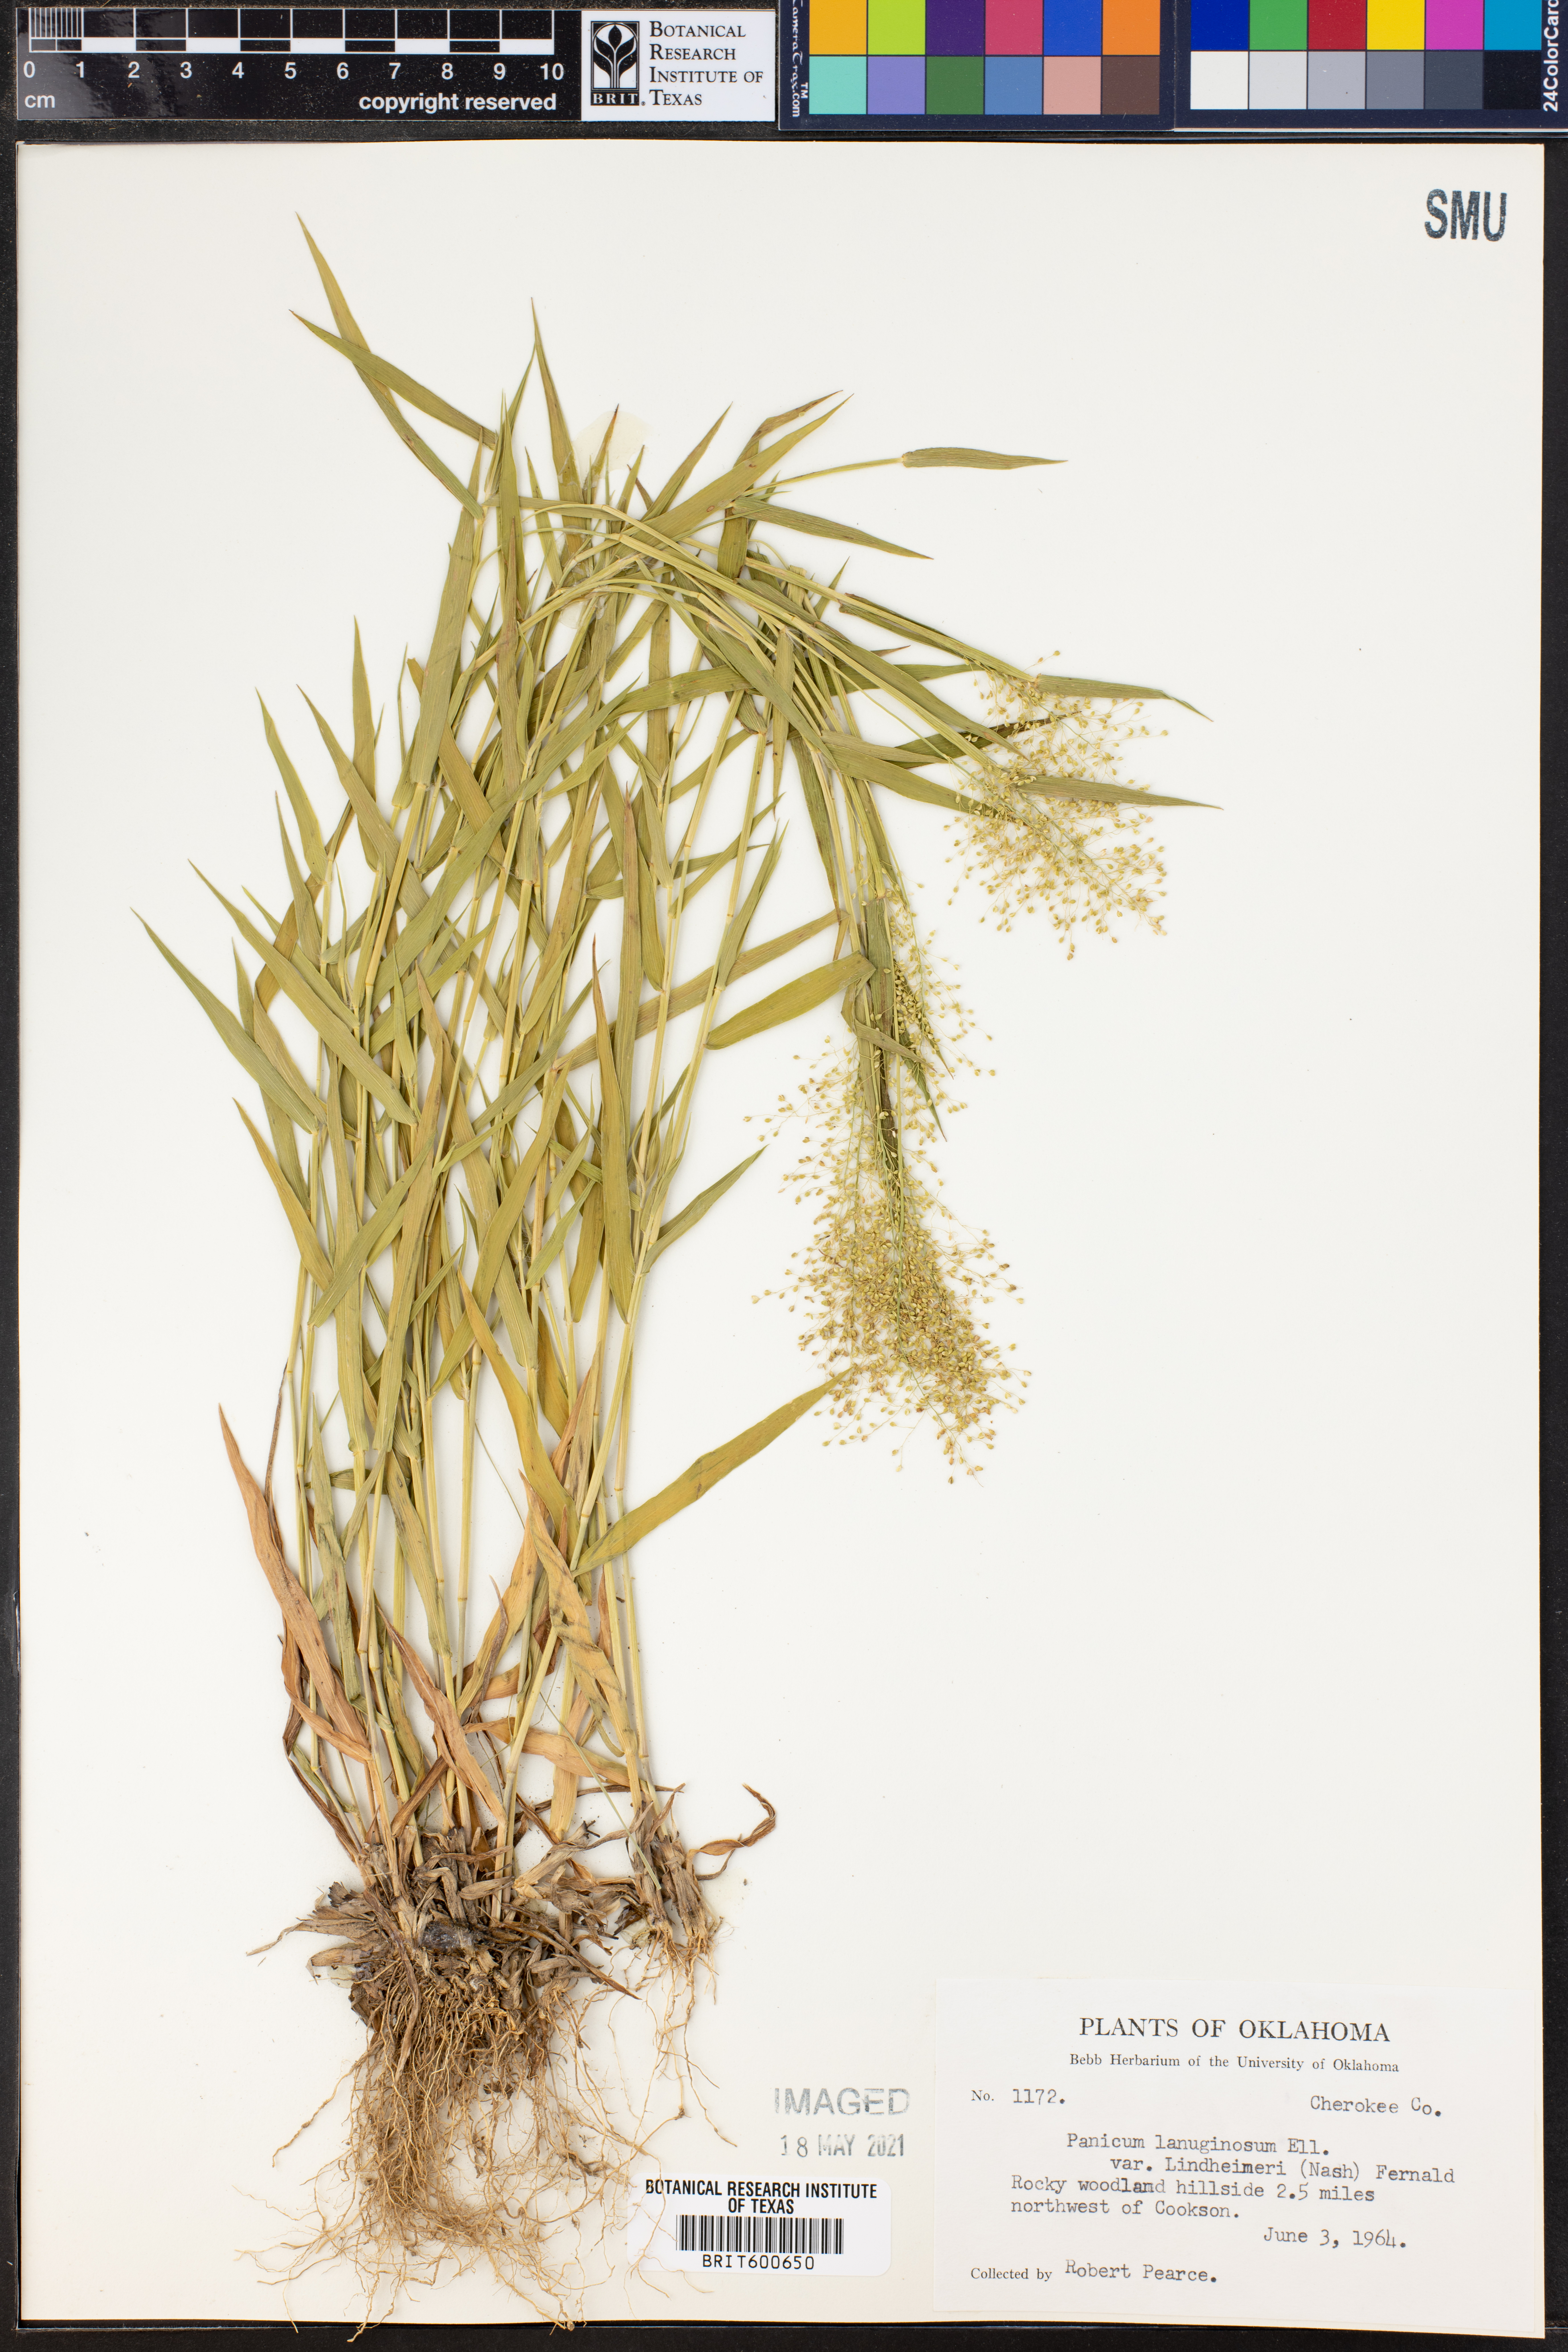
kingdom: Plantae
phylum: Tracheophyta
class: Liliopsida
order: Poales
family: Poaceae
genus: Dichanthelium
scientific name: Dichanthelium lindheimeri
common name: Lindheimer's panicgrass
